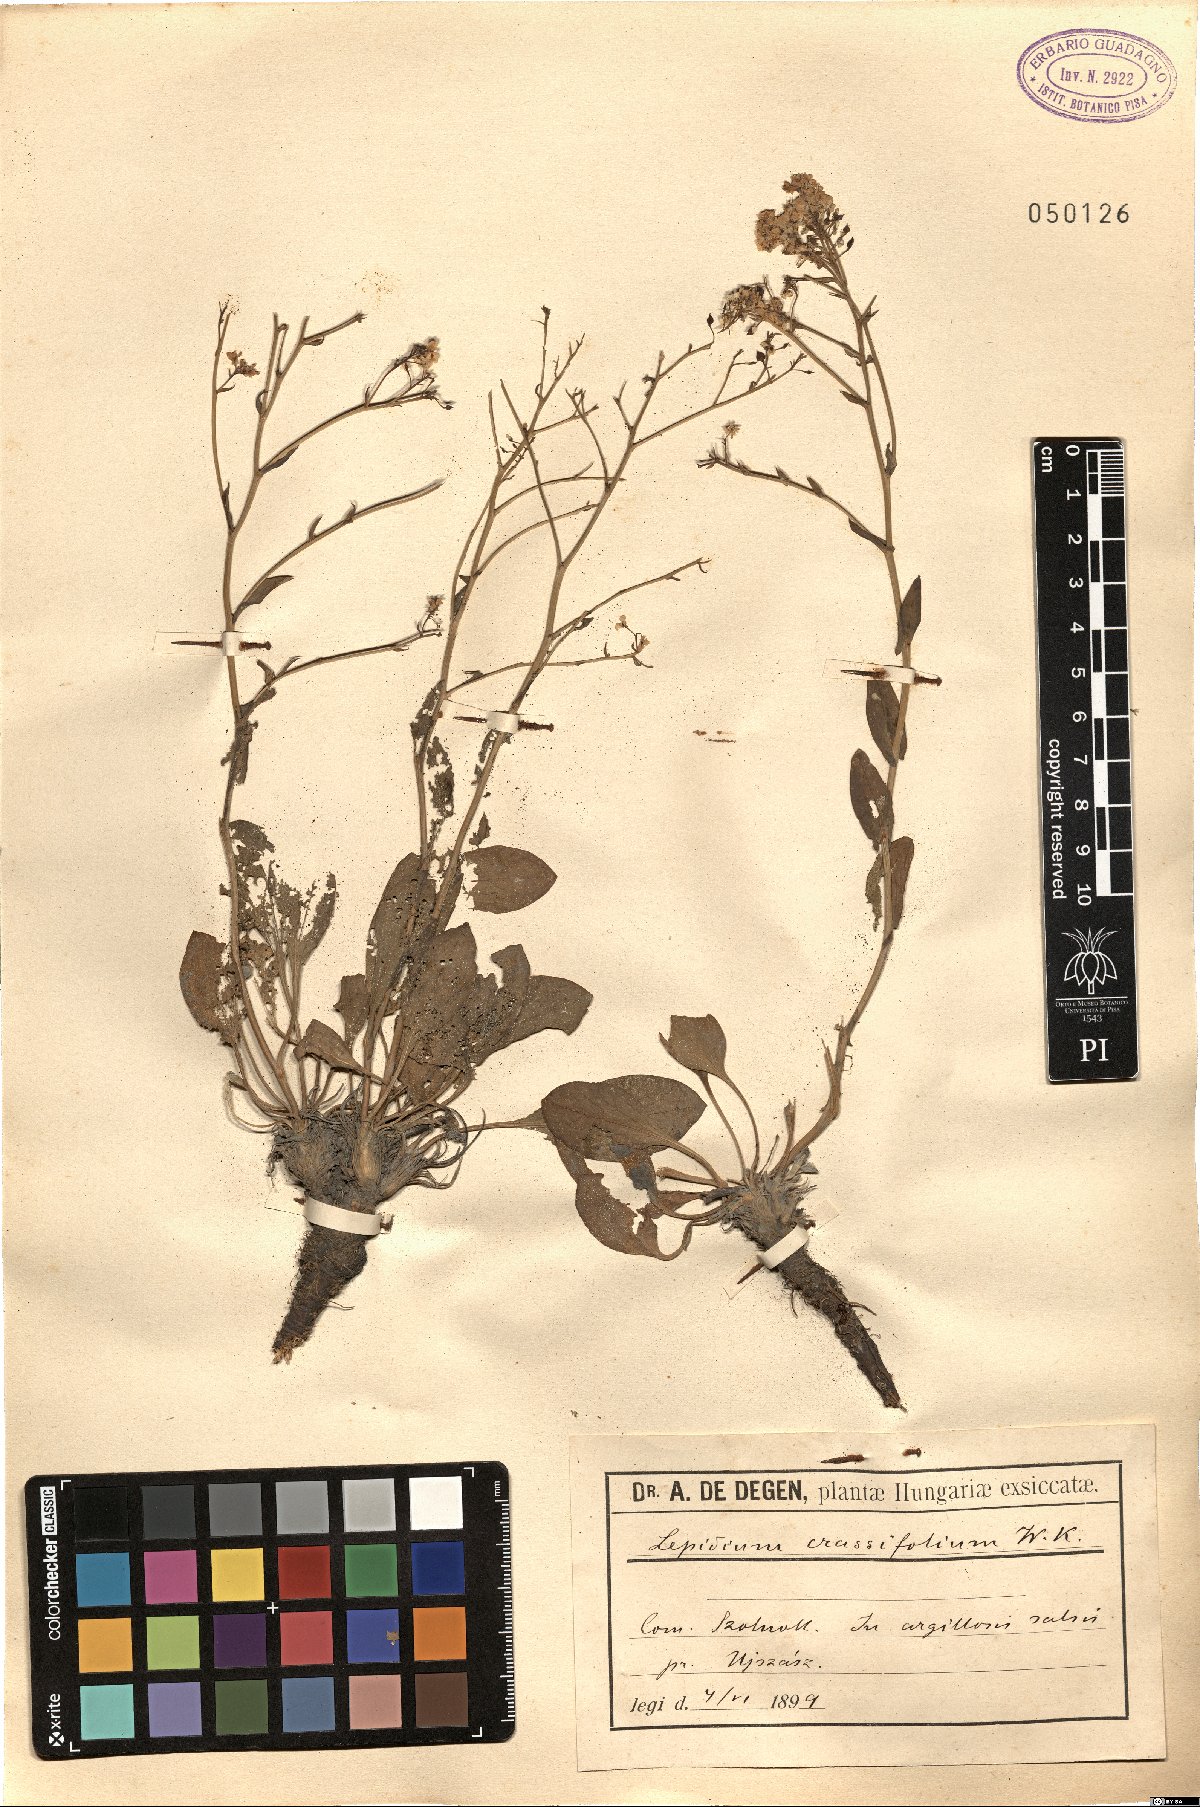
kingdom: Plantae
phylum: Tracheophyta
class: Magnoliopsida
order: Brassicales
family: Brassicaceae
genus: Lepidium
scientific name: Lepidium cartilagineum
